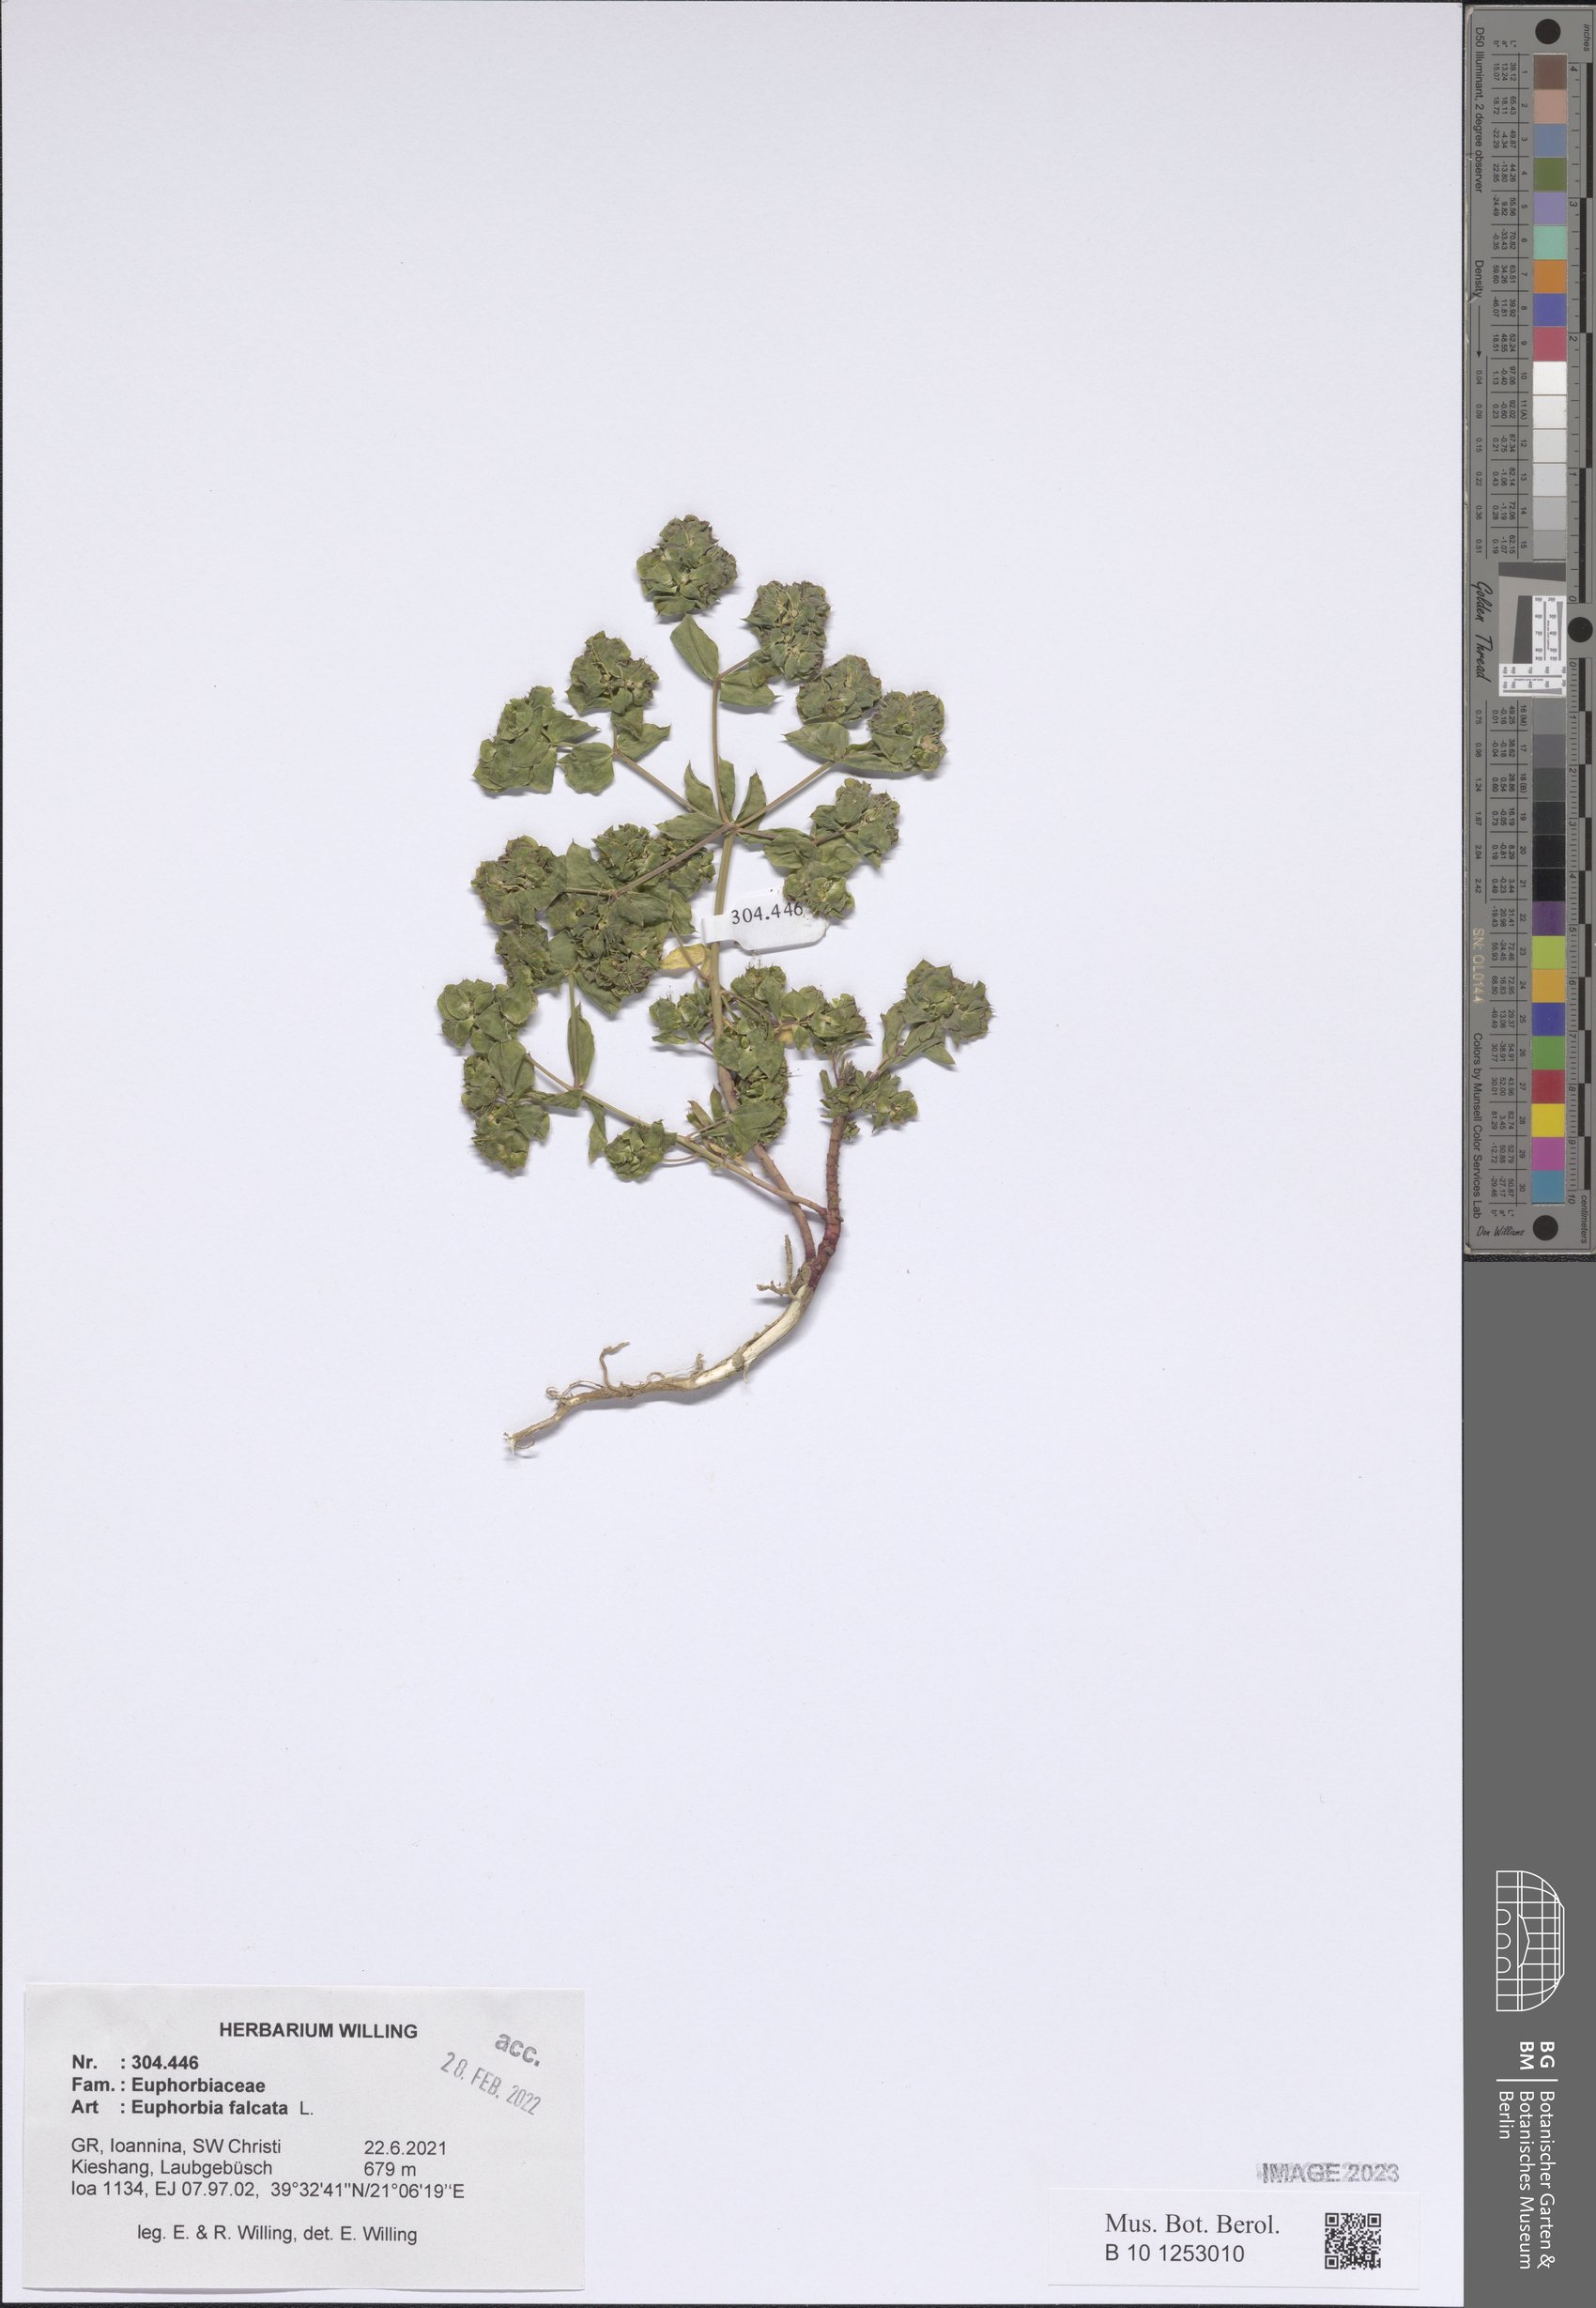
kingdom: Plantae
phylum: Tracheophyta
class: Magnoliopsida
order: Malpighiales
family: Euphorbiaceae
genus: Euphorbia
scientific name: Euphorbia falcata
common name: Sickle spurge
